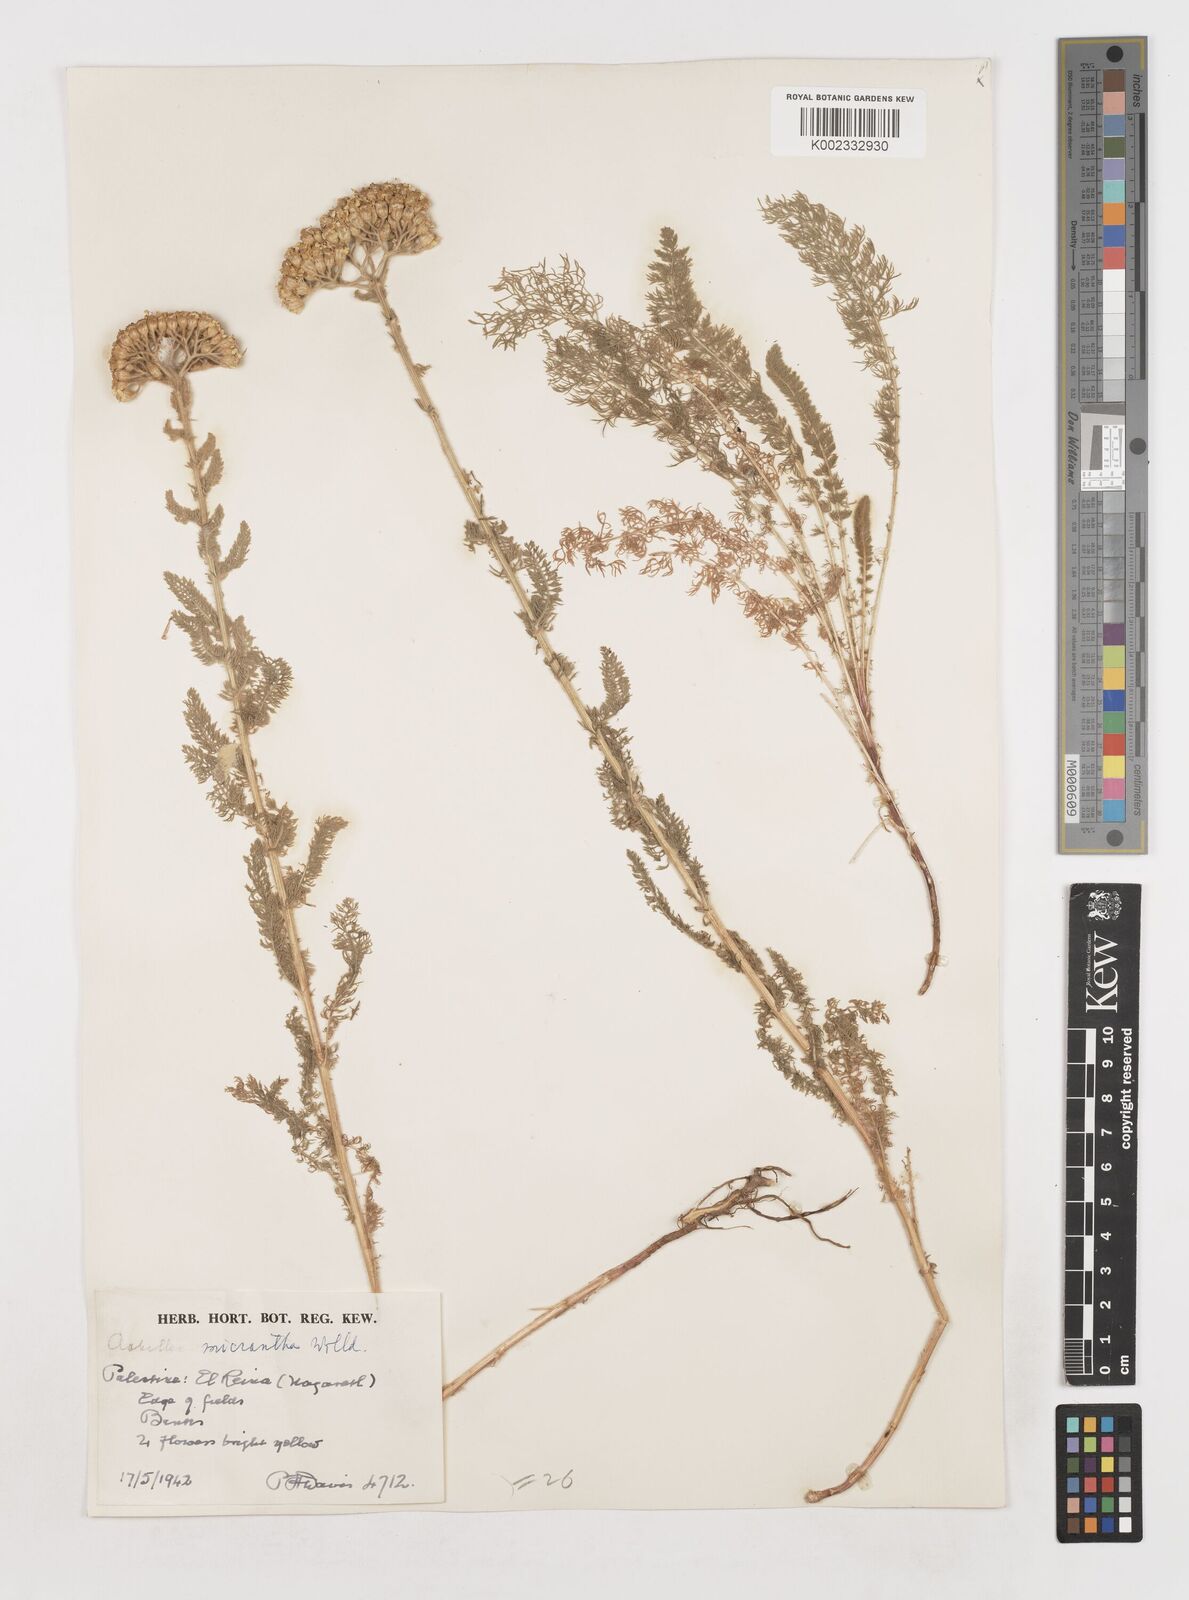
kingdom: Plantae
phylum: Tracheophyta
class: Magnoliopsida
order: Asterales
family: Asteraceae
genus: Achillea
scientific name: Achillea arabica
